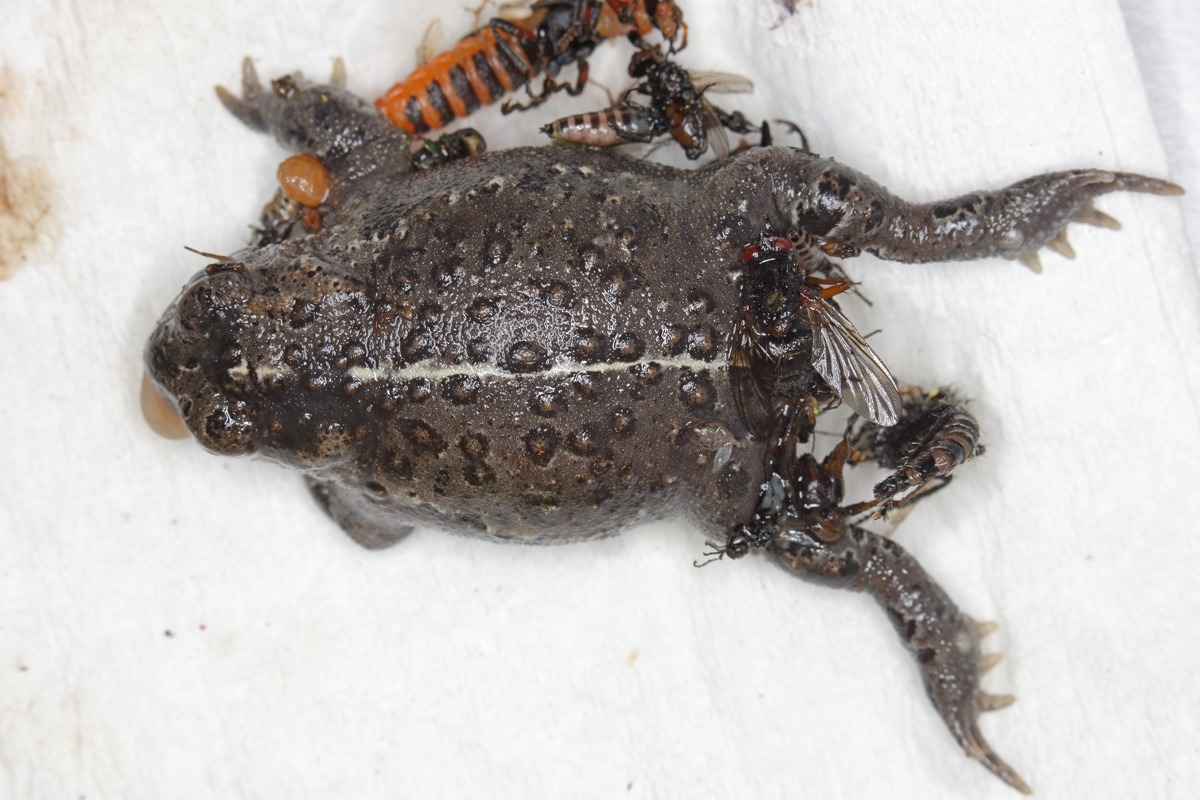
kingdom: Animalia
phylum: Chordata
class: Amphibia
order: Anura
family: Bufonidae
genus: Epidalea
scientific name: Epidalea calamita
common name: Strandtudse
